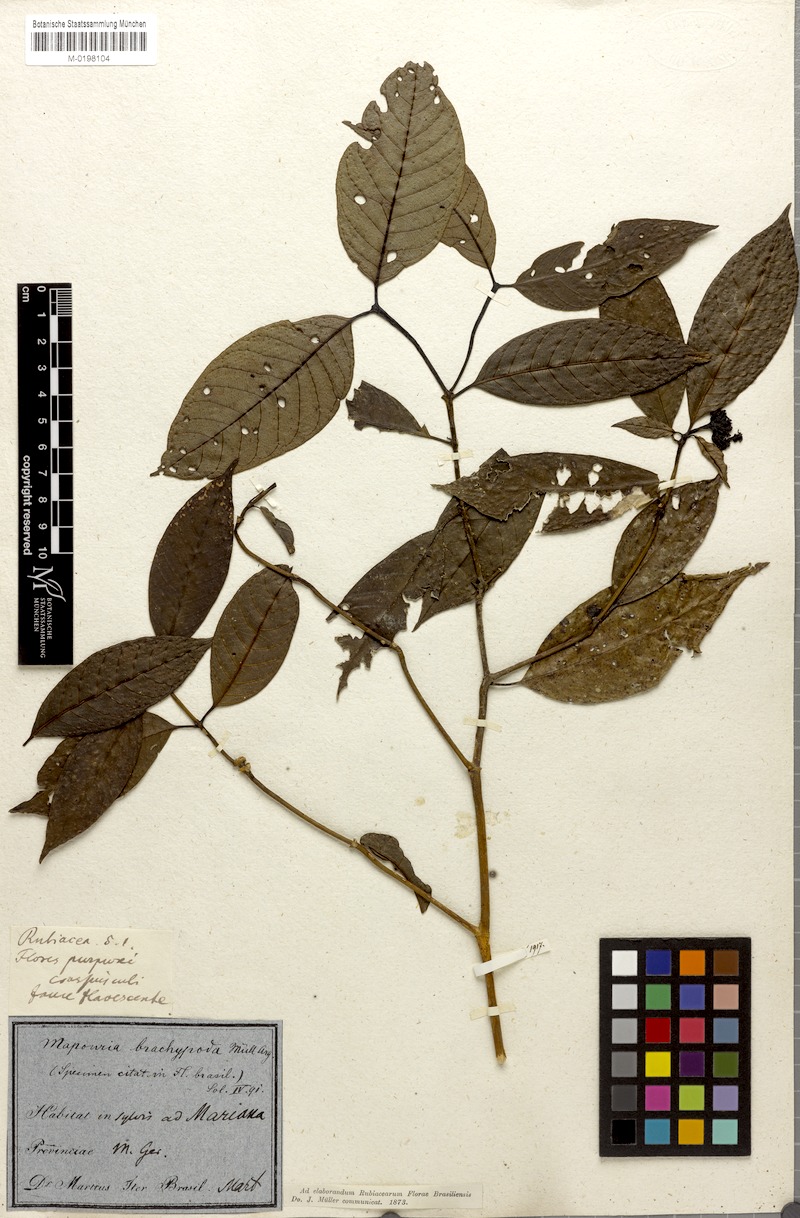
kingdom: Plantae
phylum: Tracheophyta
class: Magnoliopsida
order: Gentianales
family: Rubiaceae
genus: Psychotria
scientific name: Psychotria brachypoda
